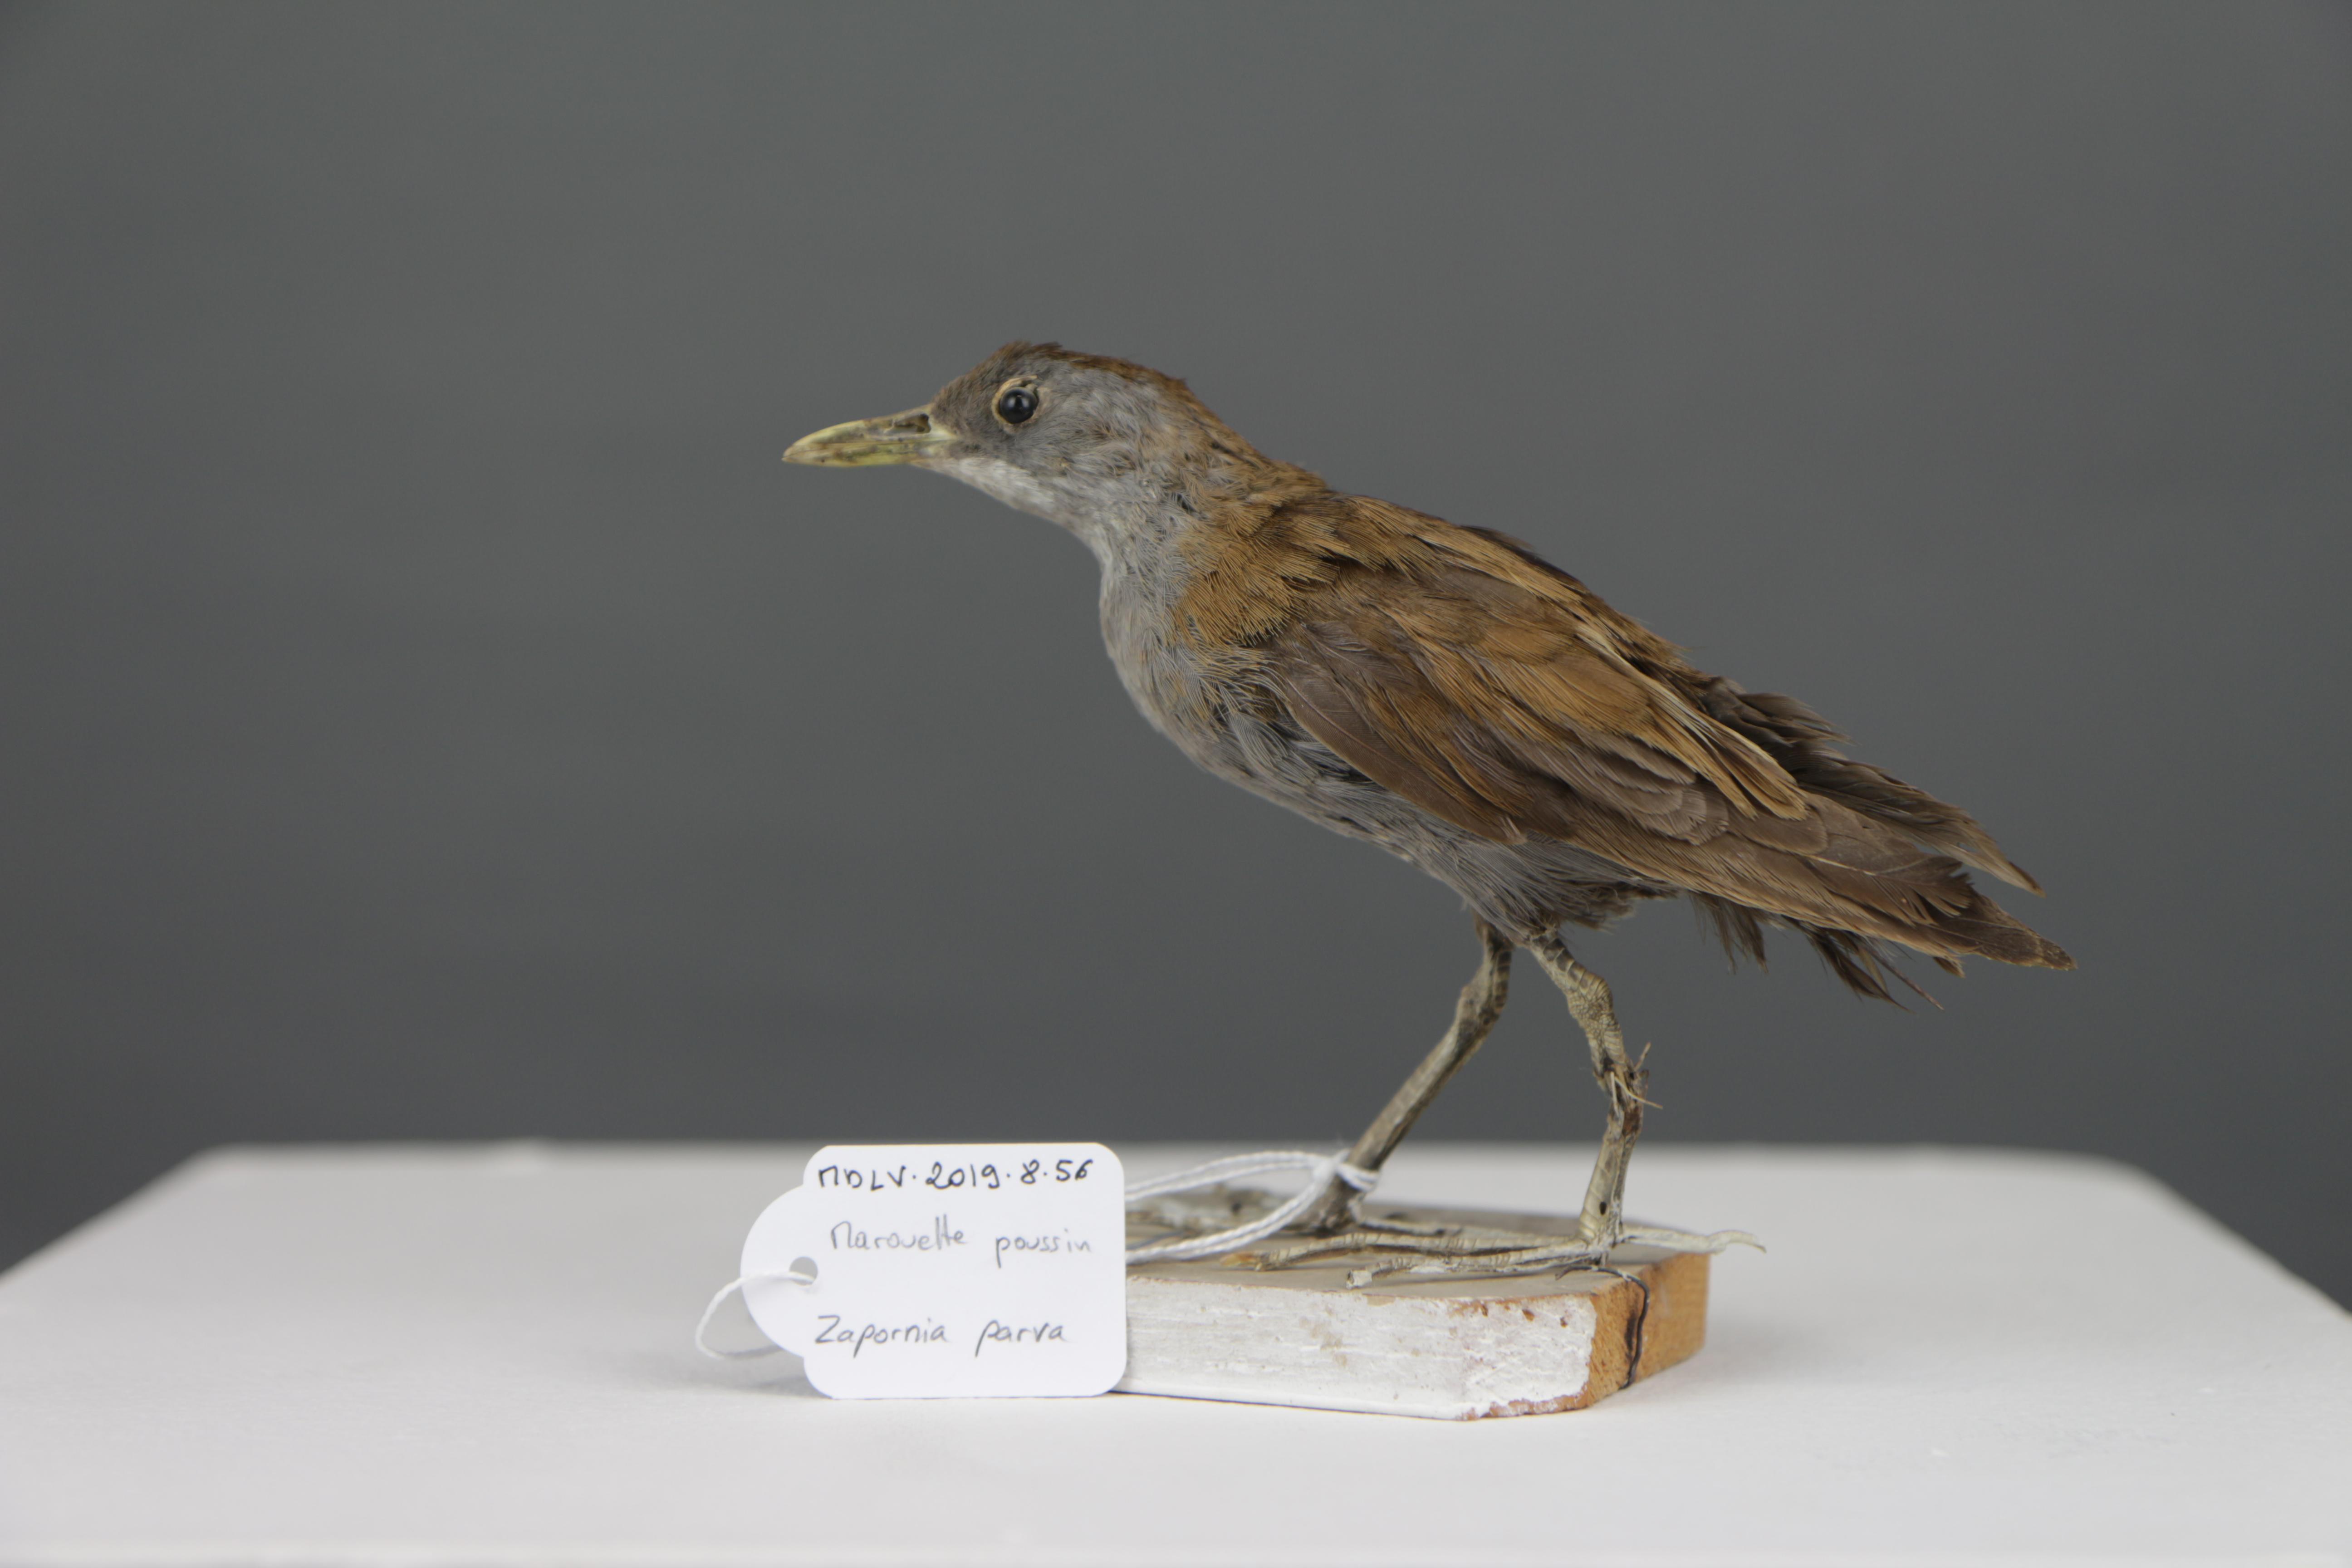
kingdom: Animalia
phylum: Chordata
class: Aves
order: Gruiformes
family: Rallidae
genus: Porzana
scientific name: Porzana parva
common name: Little crake
